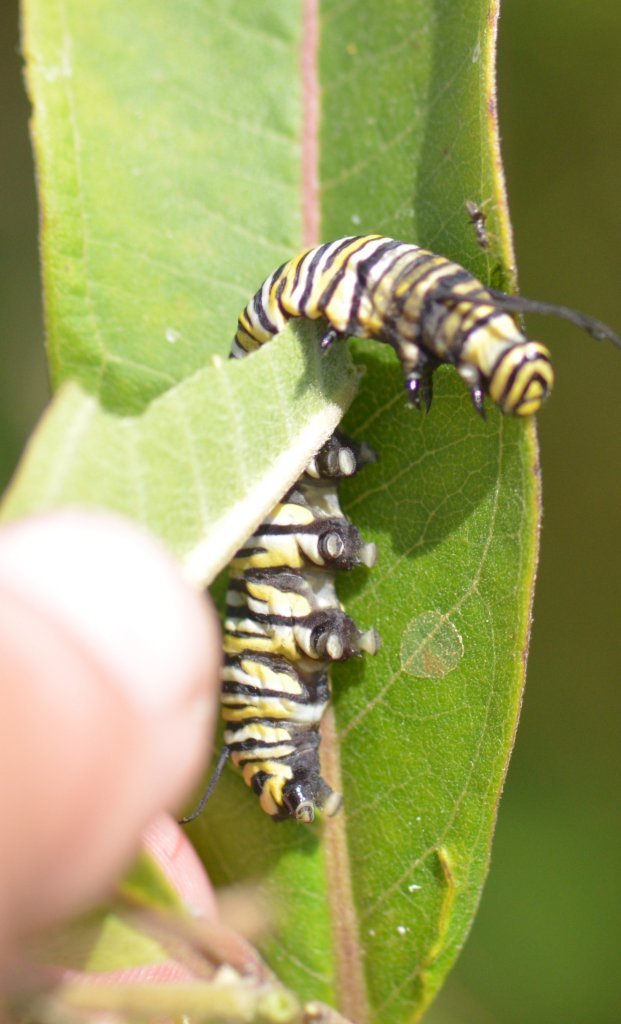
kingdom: Animalia
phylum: Arthropoda
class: Insecta
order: Lepidoptera
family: Nymphalidae
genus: Danaus
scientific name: Danaus plexippus
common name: Monarch
